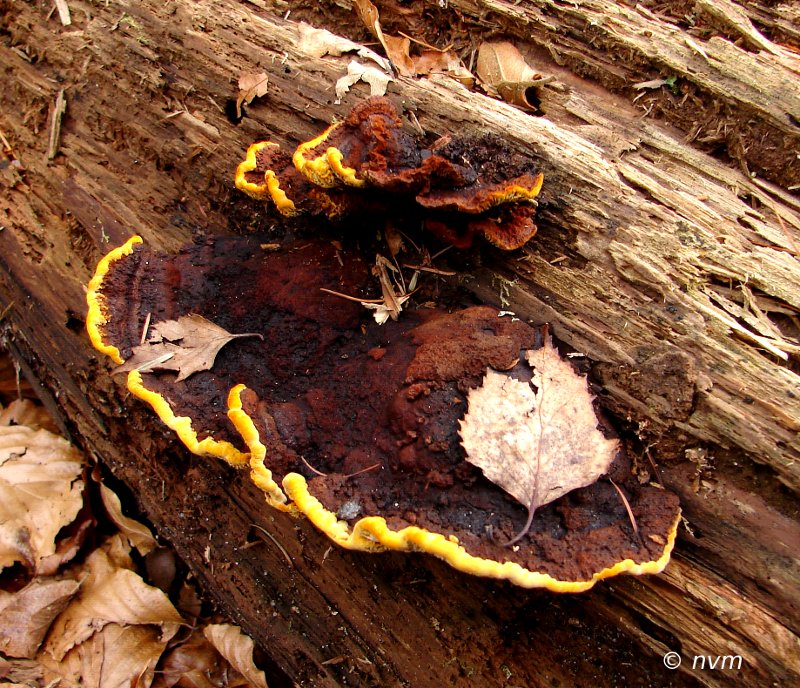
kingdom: Fungi
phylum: Basidiomycota
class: Agaricomycetes
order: Polyporales
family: Laetiporaceae
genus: Phaeolus
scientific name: Phaeolus schweinitzii
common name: brunporesvamp
